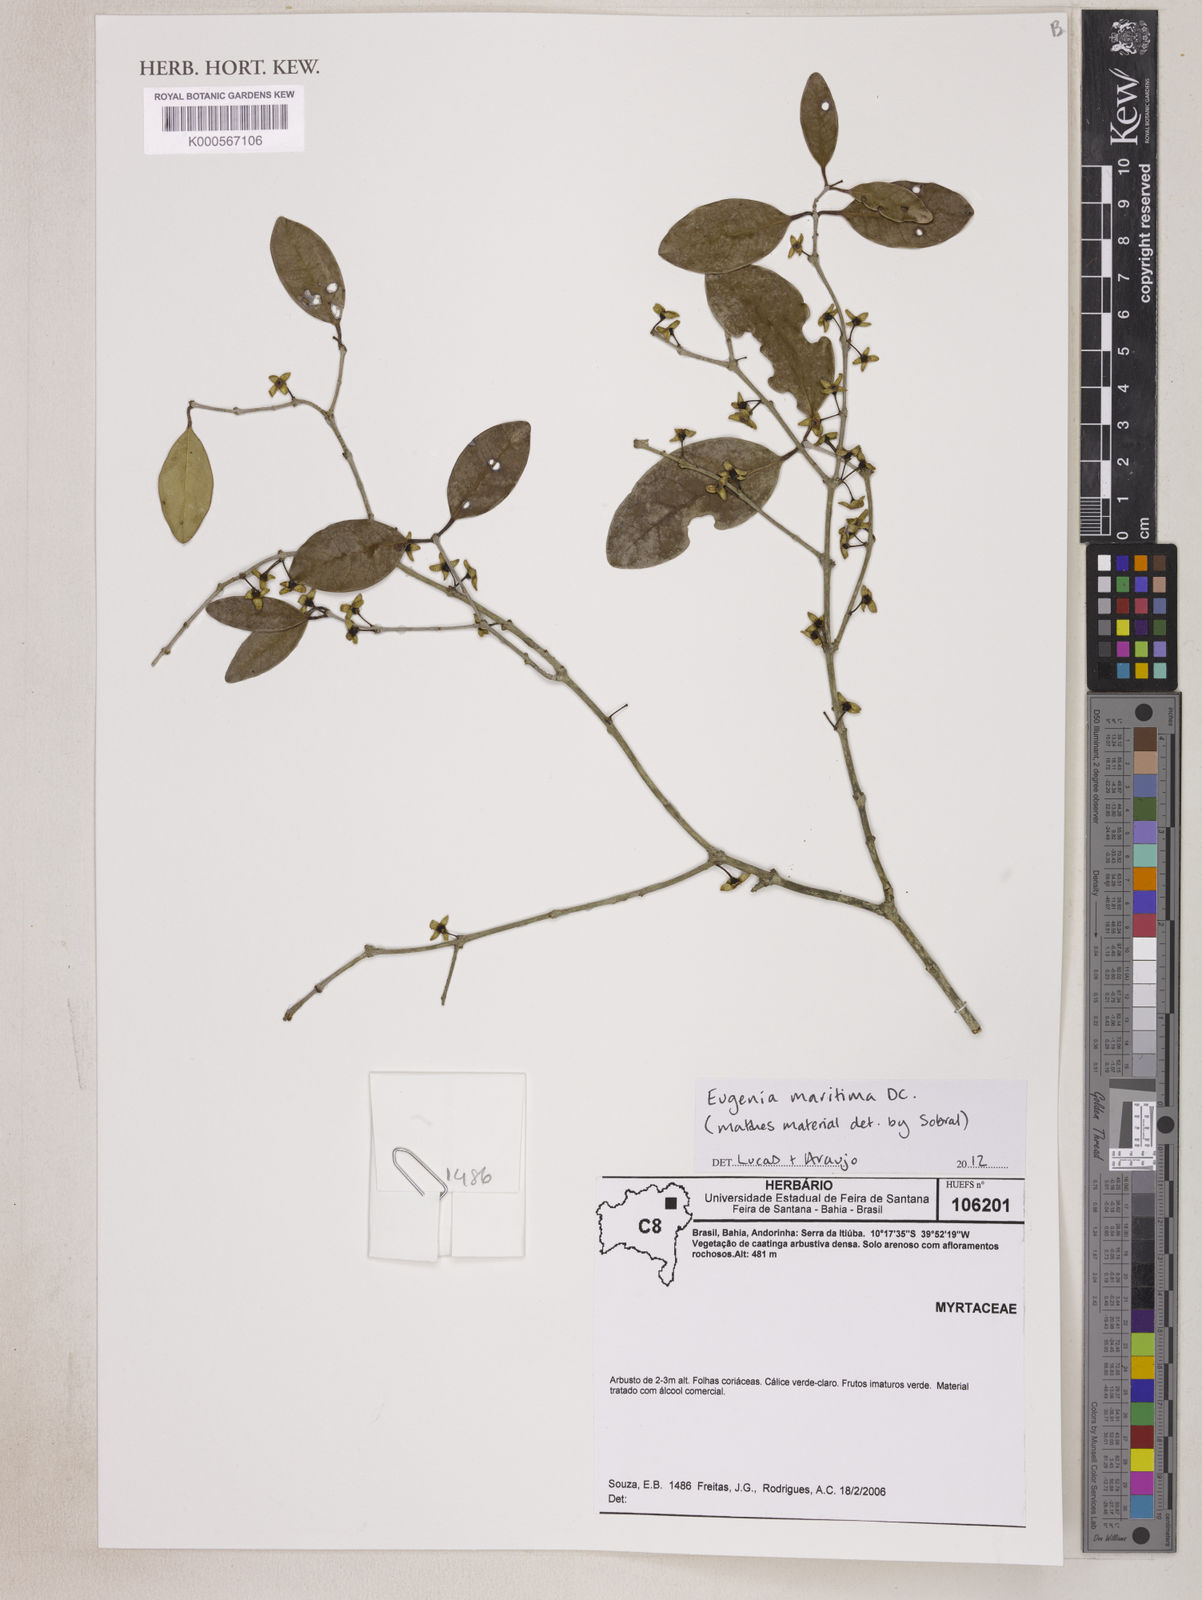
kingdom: Plantae
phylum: Tracheophyta
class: Magnoliopsida
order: Myrtales
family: Myrtaceae
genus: Eugenia
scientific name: Eugenia maritima
